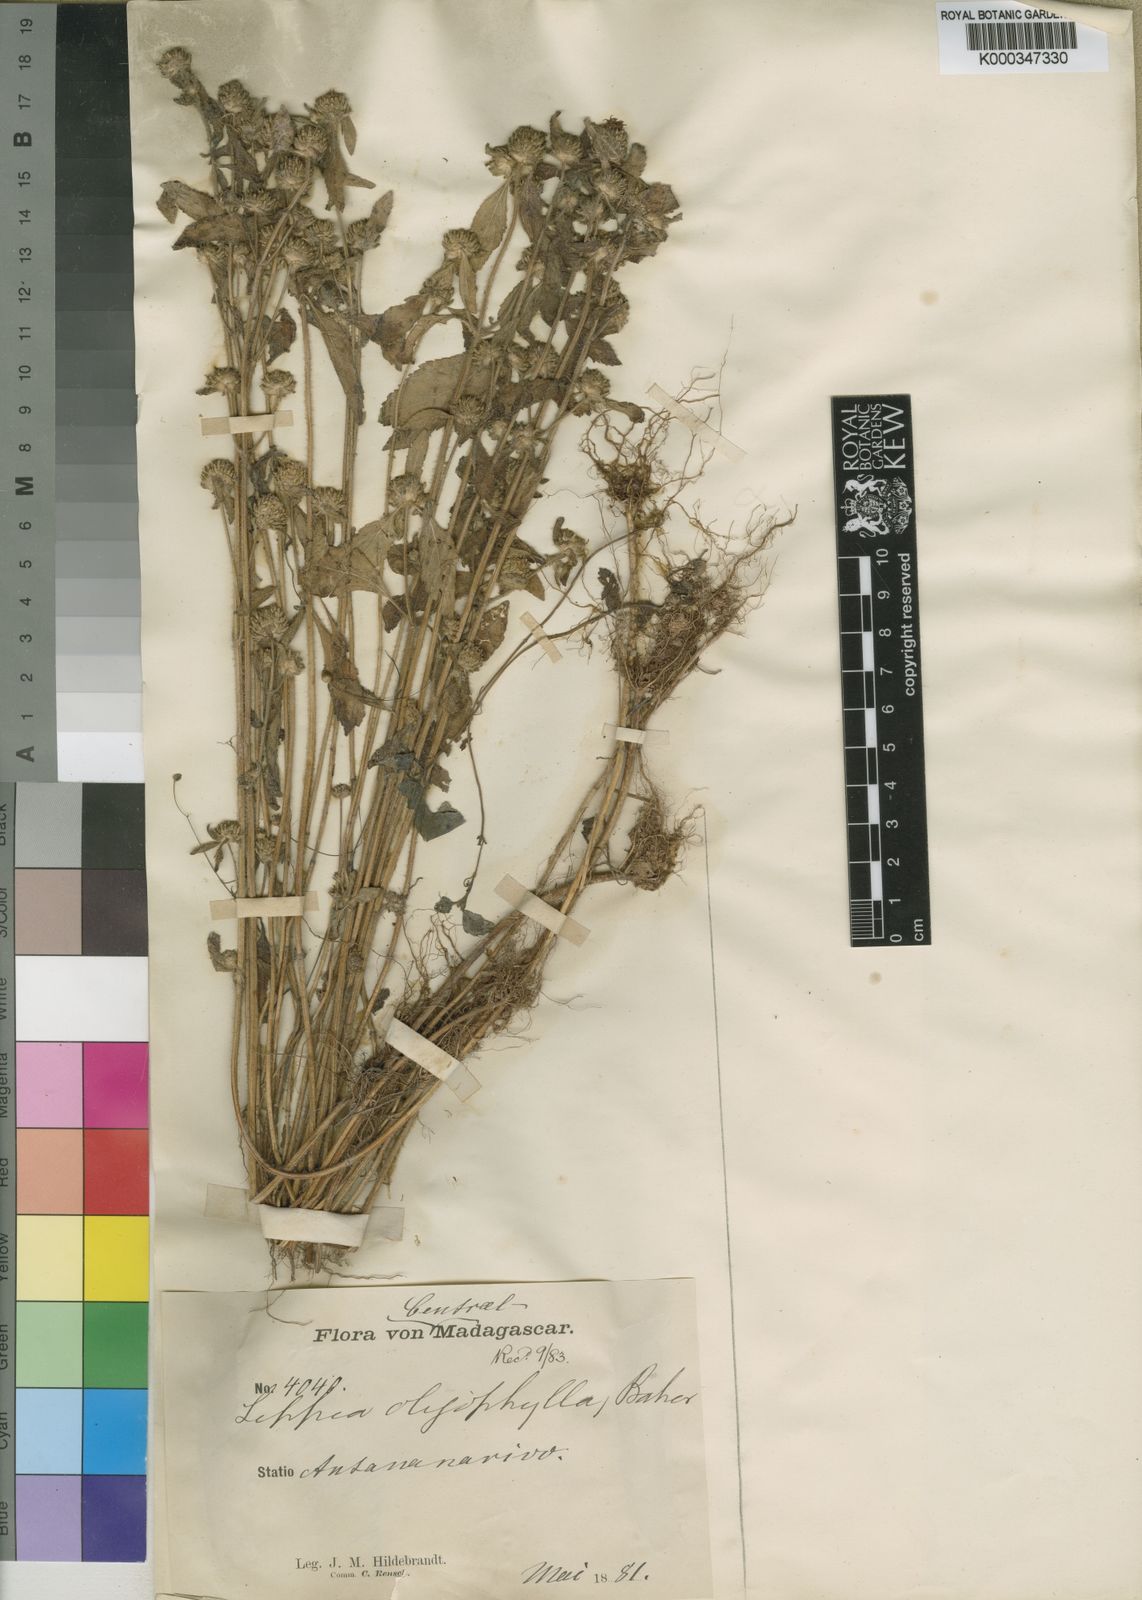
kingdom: Plantae
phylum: Tracheophyta
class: Magnoliopsida
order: Lamiales
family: Lamiaceae
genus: Haumaniastrum
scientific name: Haumaniastrum villosum
